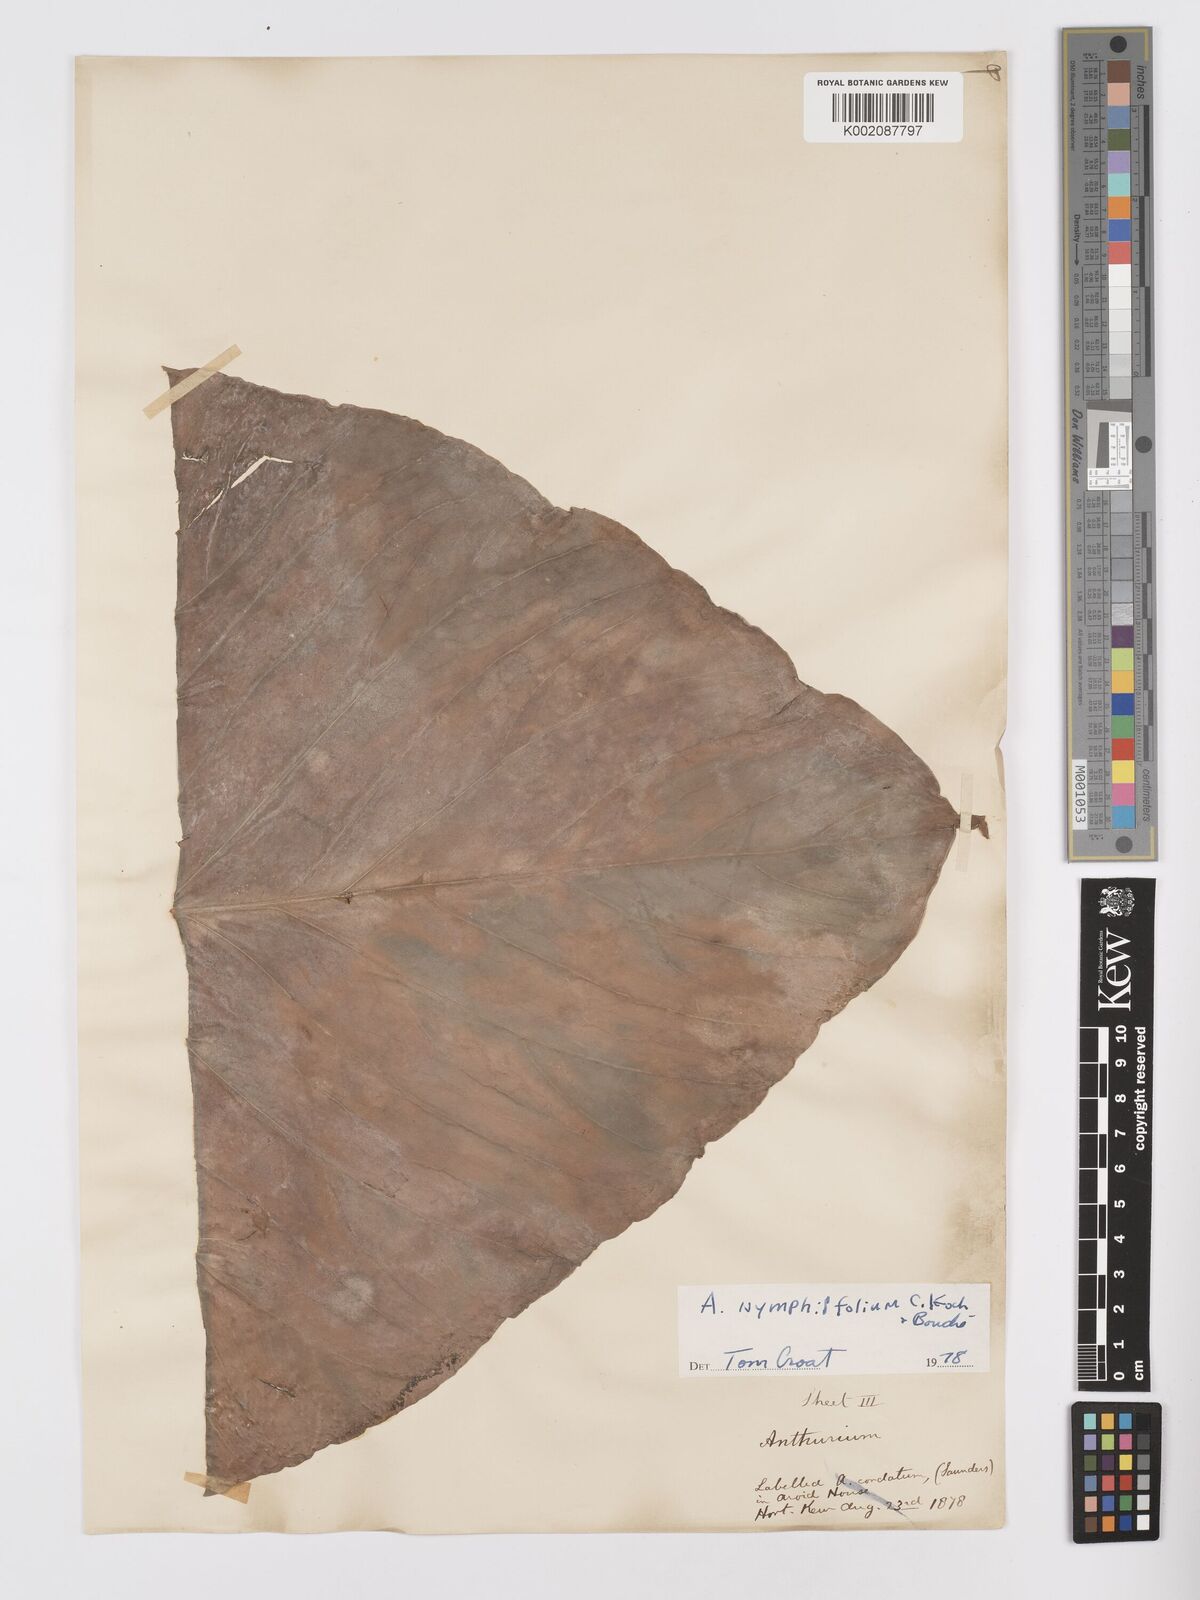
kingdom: Plantae
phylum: Tracheophyta
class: Liliopsida
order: Alismatales
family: Araceae
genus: Anthurium
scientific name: Anthurium nymphaeifolium
